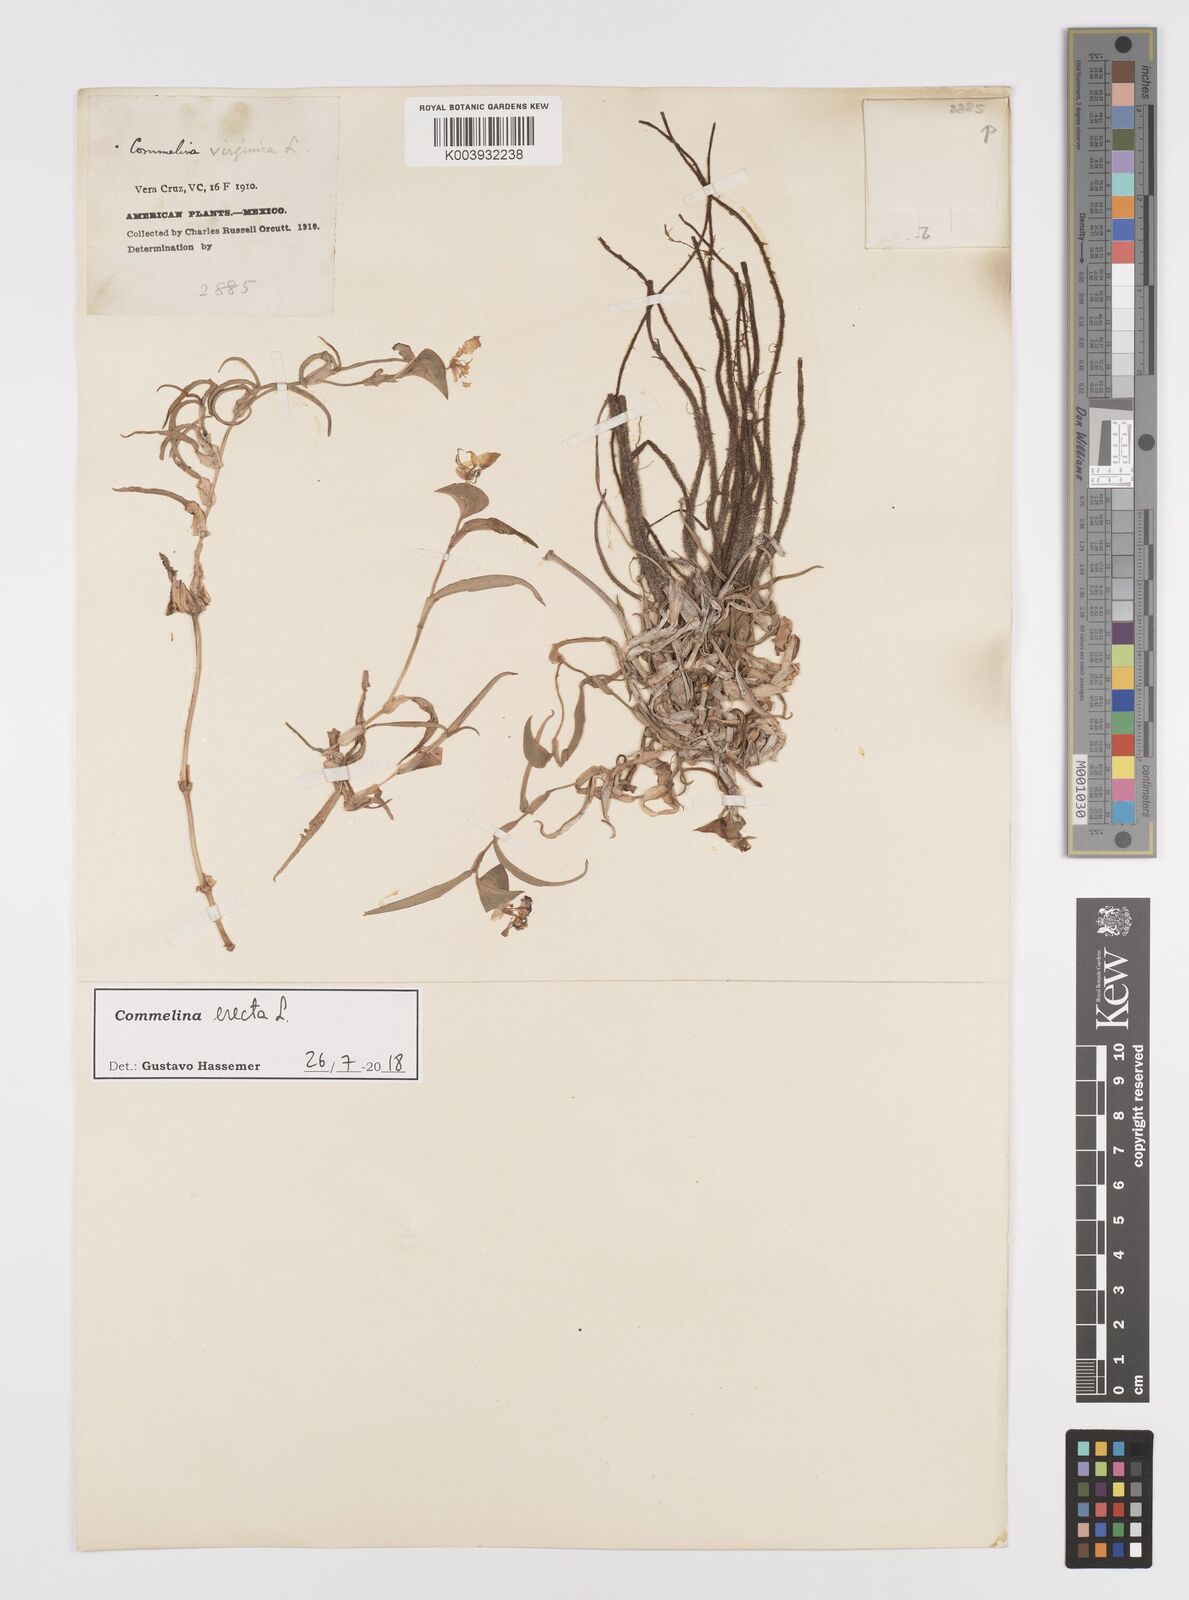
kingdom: Plantae
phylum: Tracheophyta
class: Liliopsida
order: Commelinales
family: Commelinaceae
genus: Commelina
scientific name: Commelina erecta
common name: Blousel blommetjie
